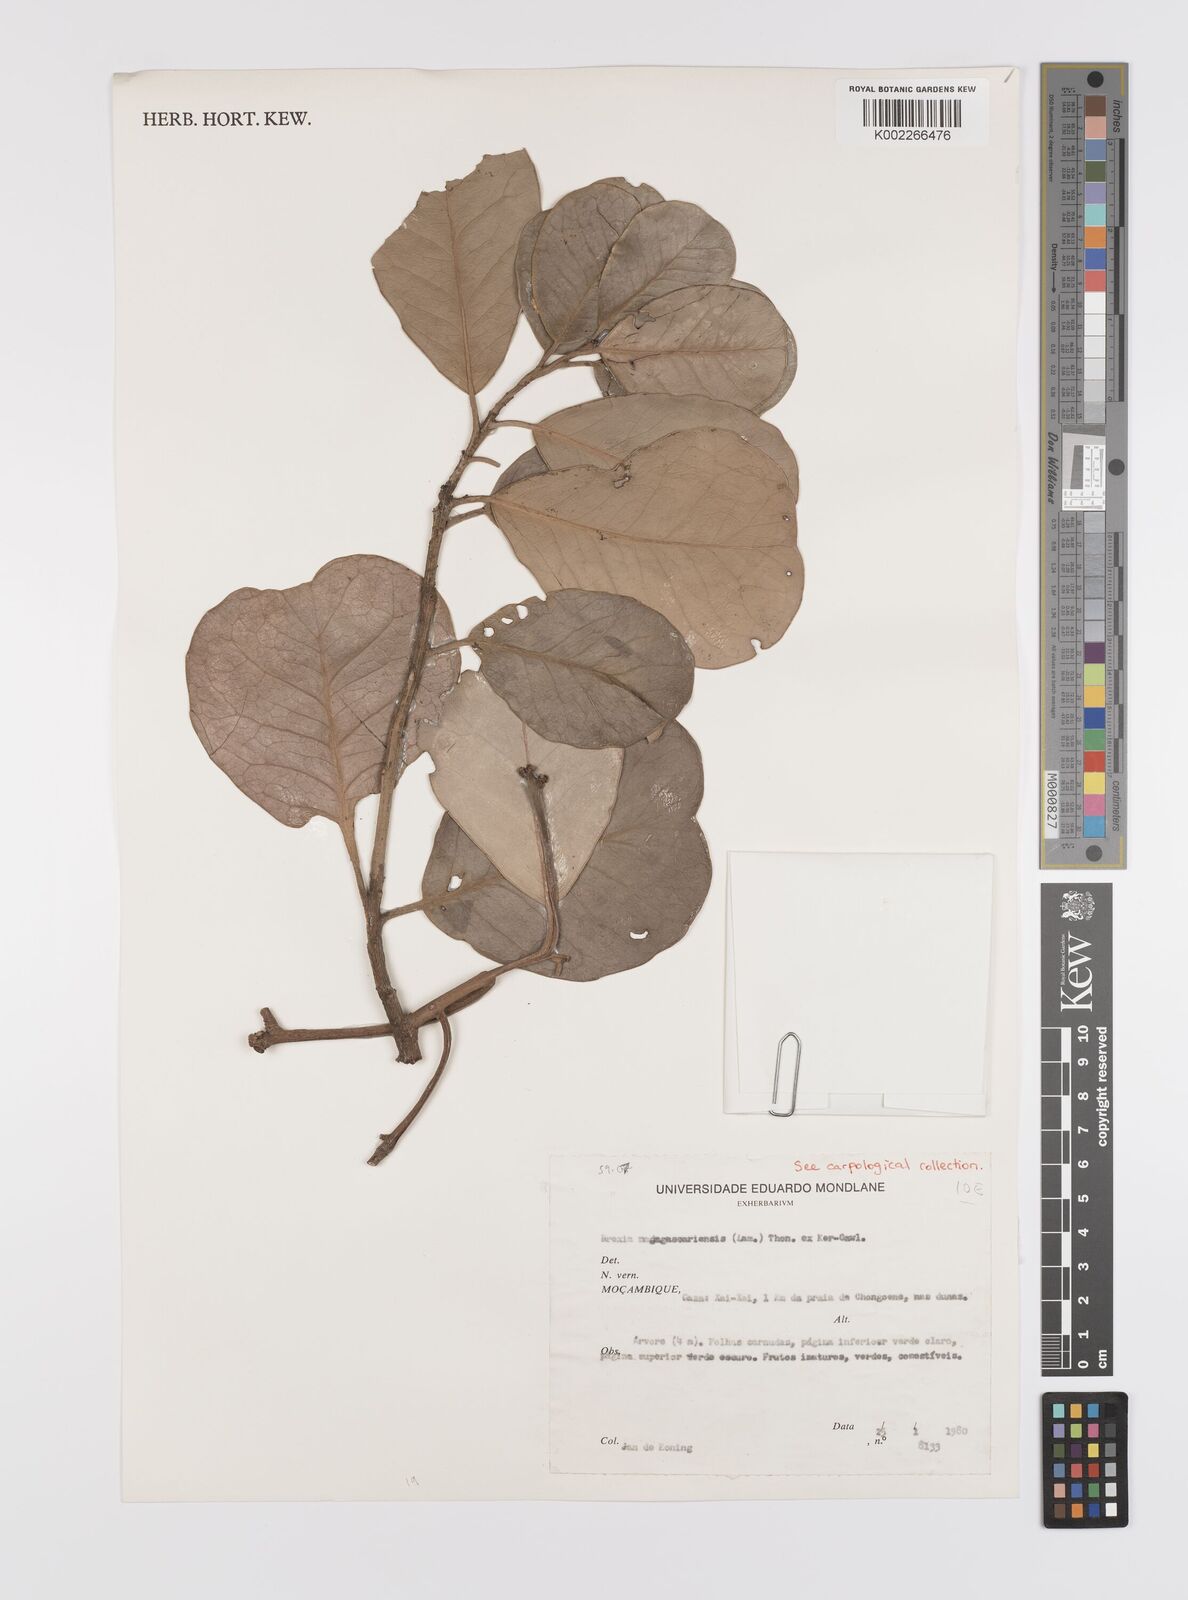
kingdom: Plantae
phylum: Tracheophyta
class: Magnoliopsida
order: Celastrales
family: Celastraceae
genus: Brexia
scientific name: Brexia madagascariensis
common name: Brexia
